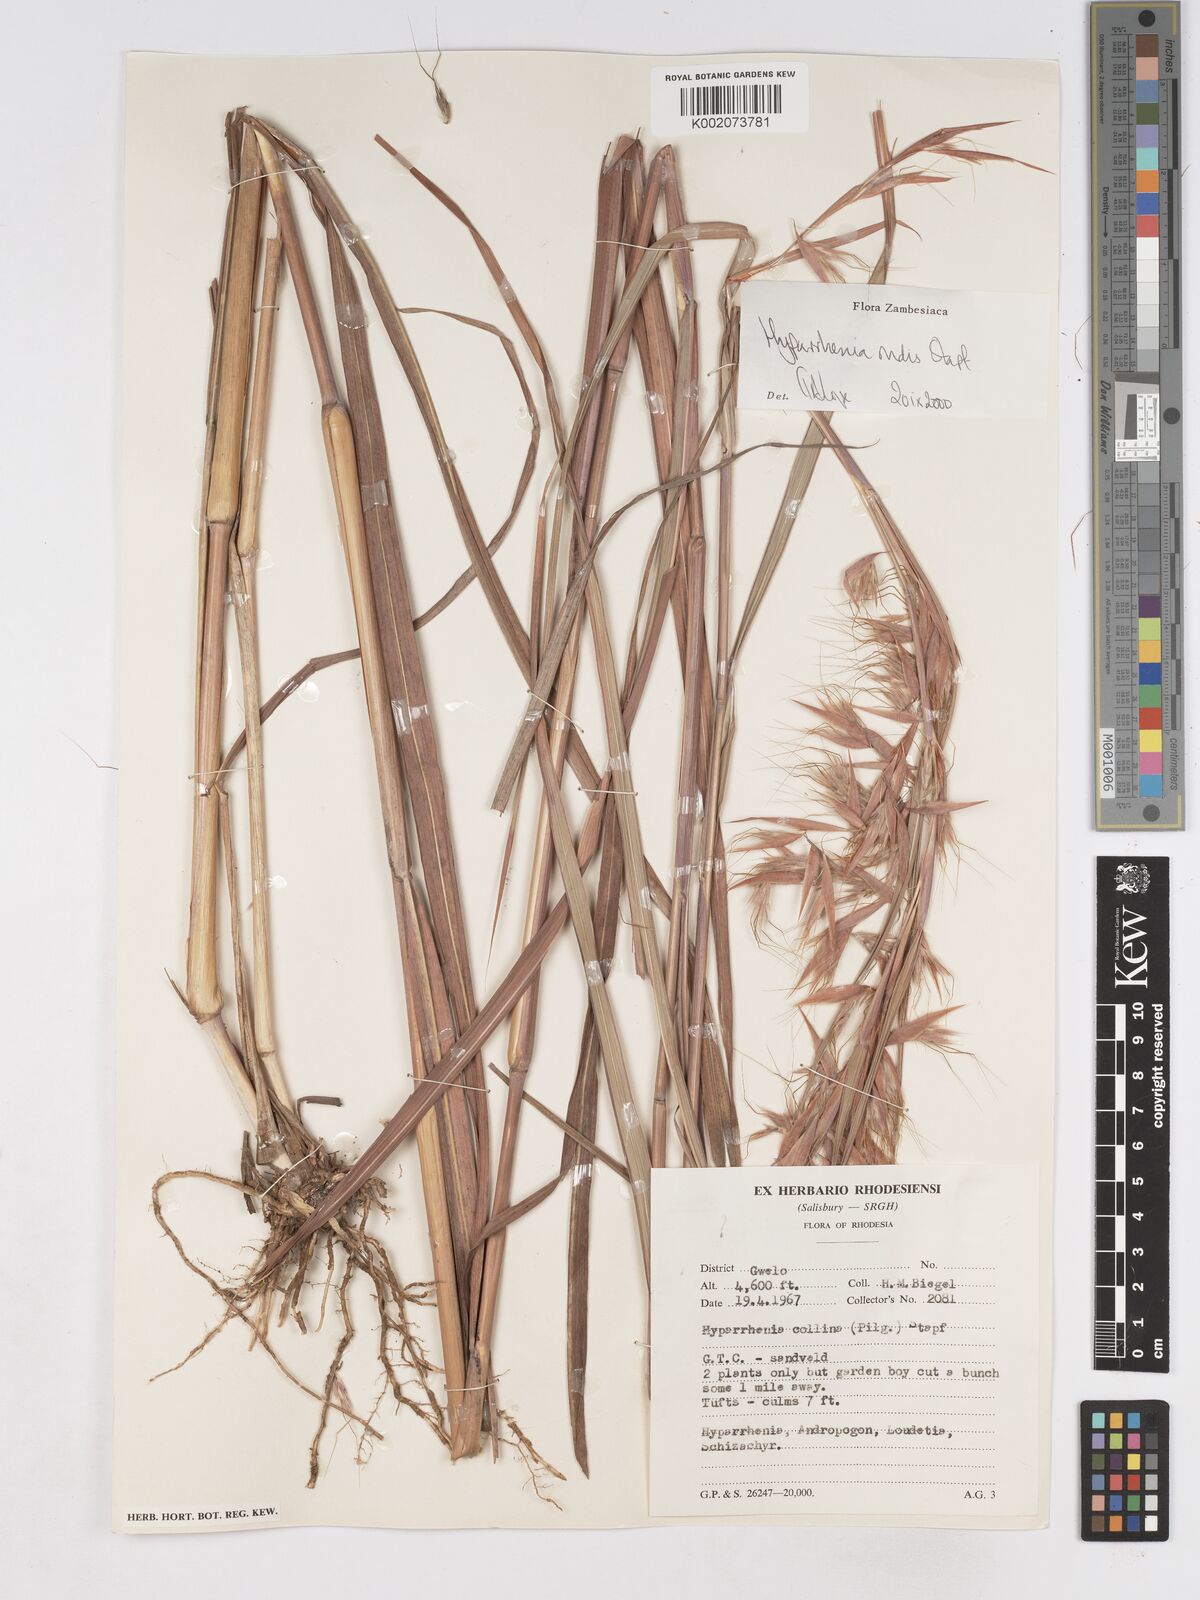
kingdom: Plantae
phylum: Tracheophyta
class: Liliopsida
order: Poales
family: Poaceae
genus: Hyparrhenia
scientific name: Hyparrhenia rudis
